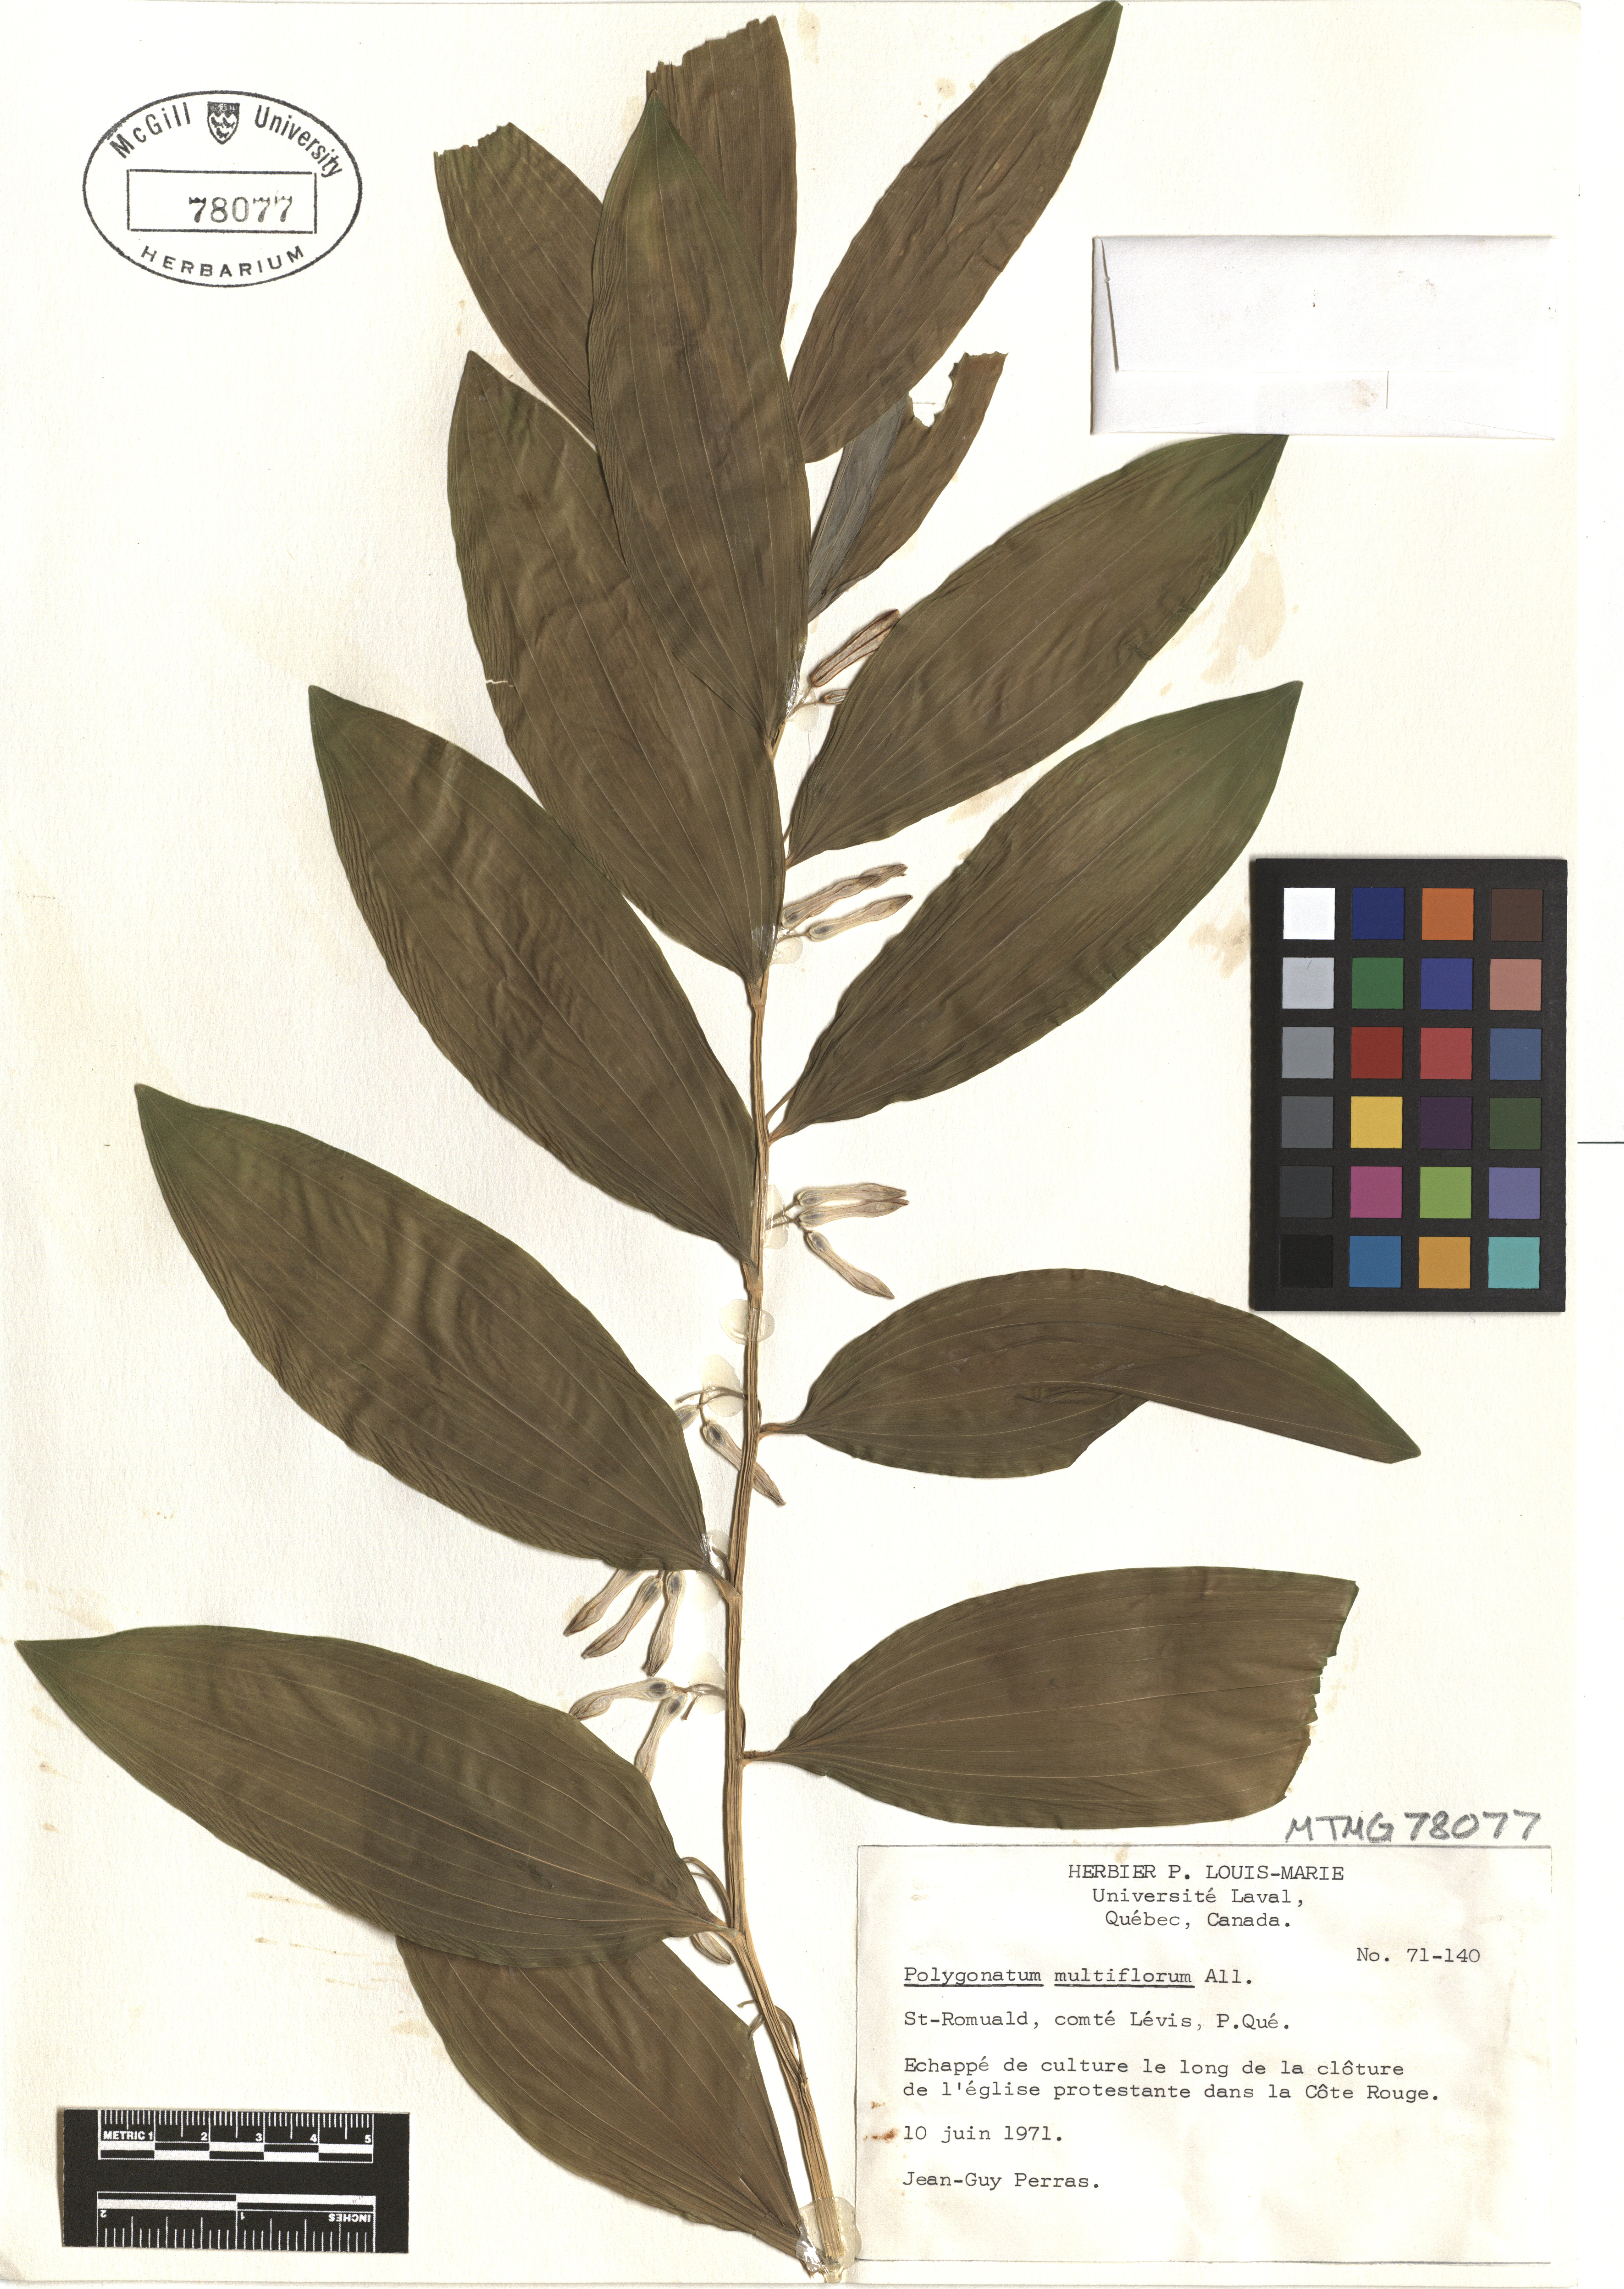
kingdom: Plantae
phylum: Tracheophyta
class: Liliopsida
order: Asparagales
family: Asparagaceae
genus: Polygonatum
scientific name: Polygonatum multiflorum
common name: Solomon's-seal
